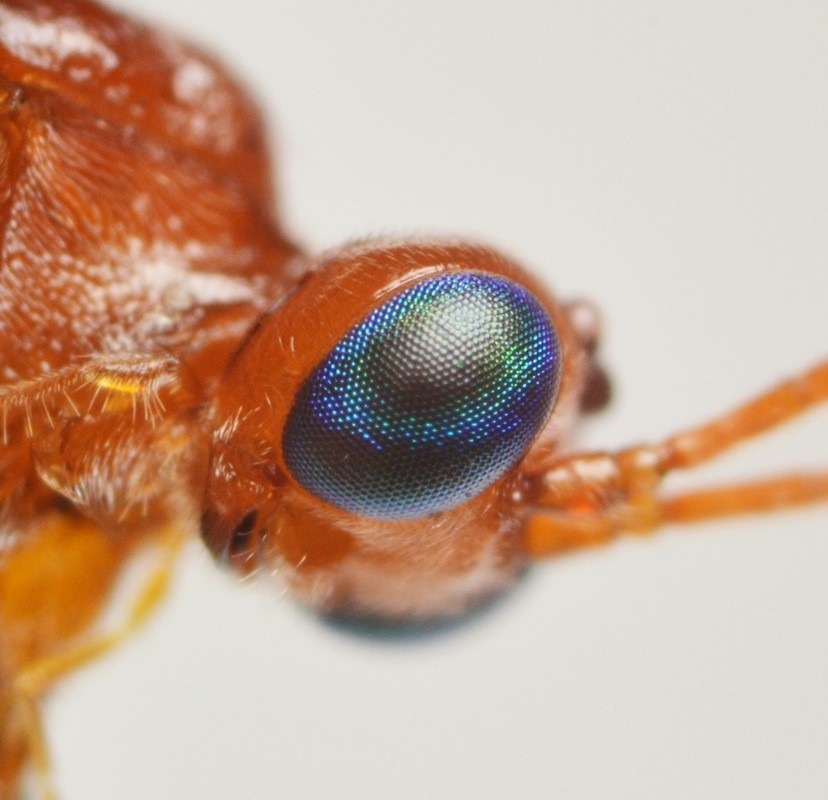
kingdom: Animalia
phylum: Arthropoda
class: Insecta
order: Hymenoptera
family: Braconidae
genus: Zele
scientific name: Zele chlorophthalmus
